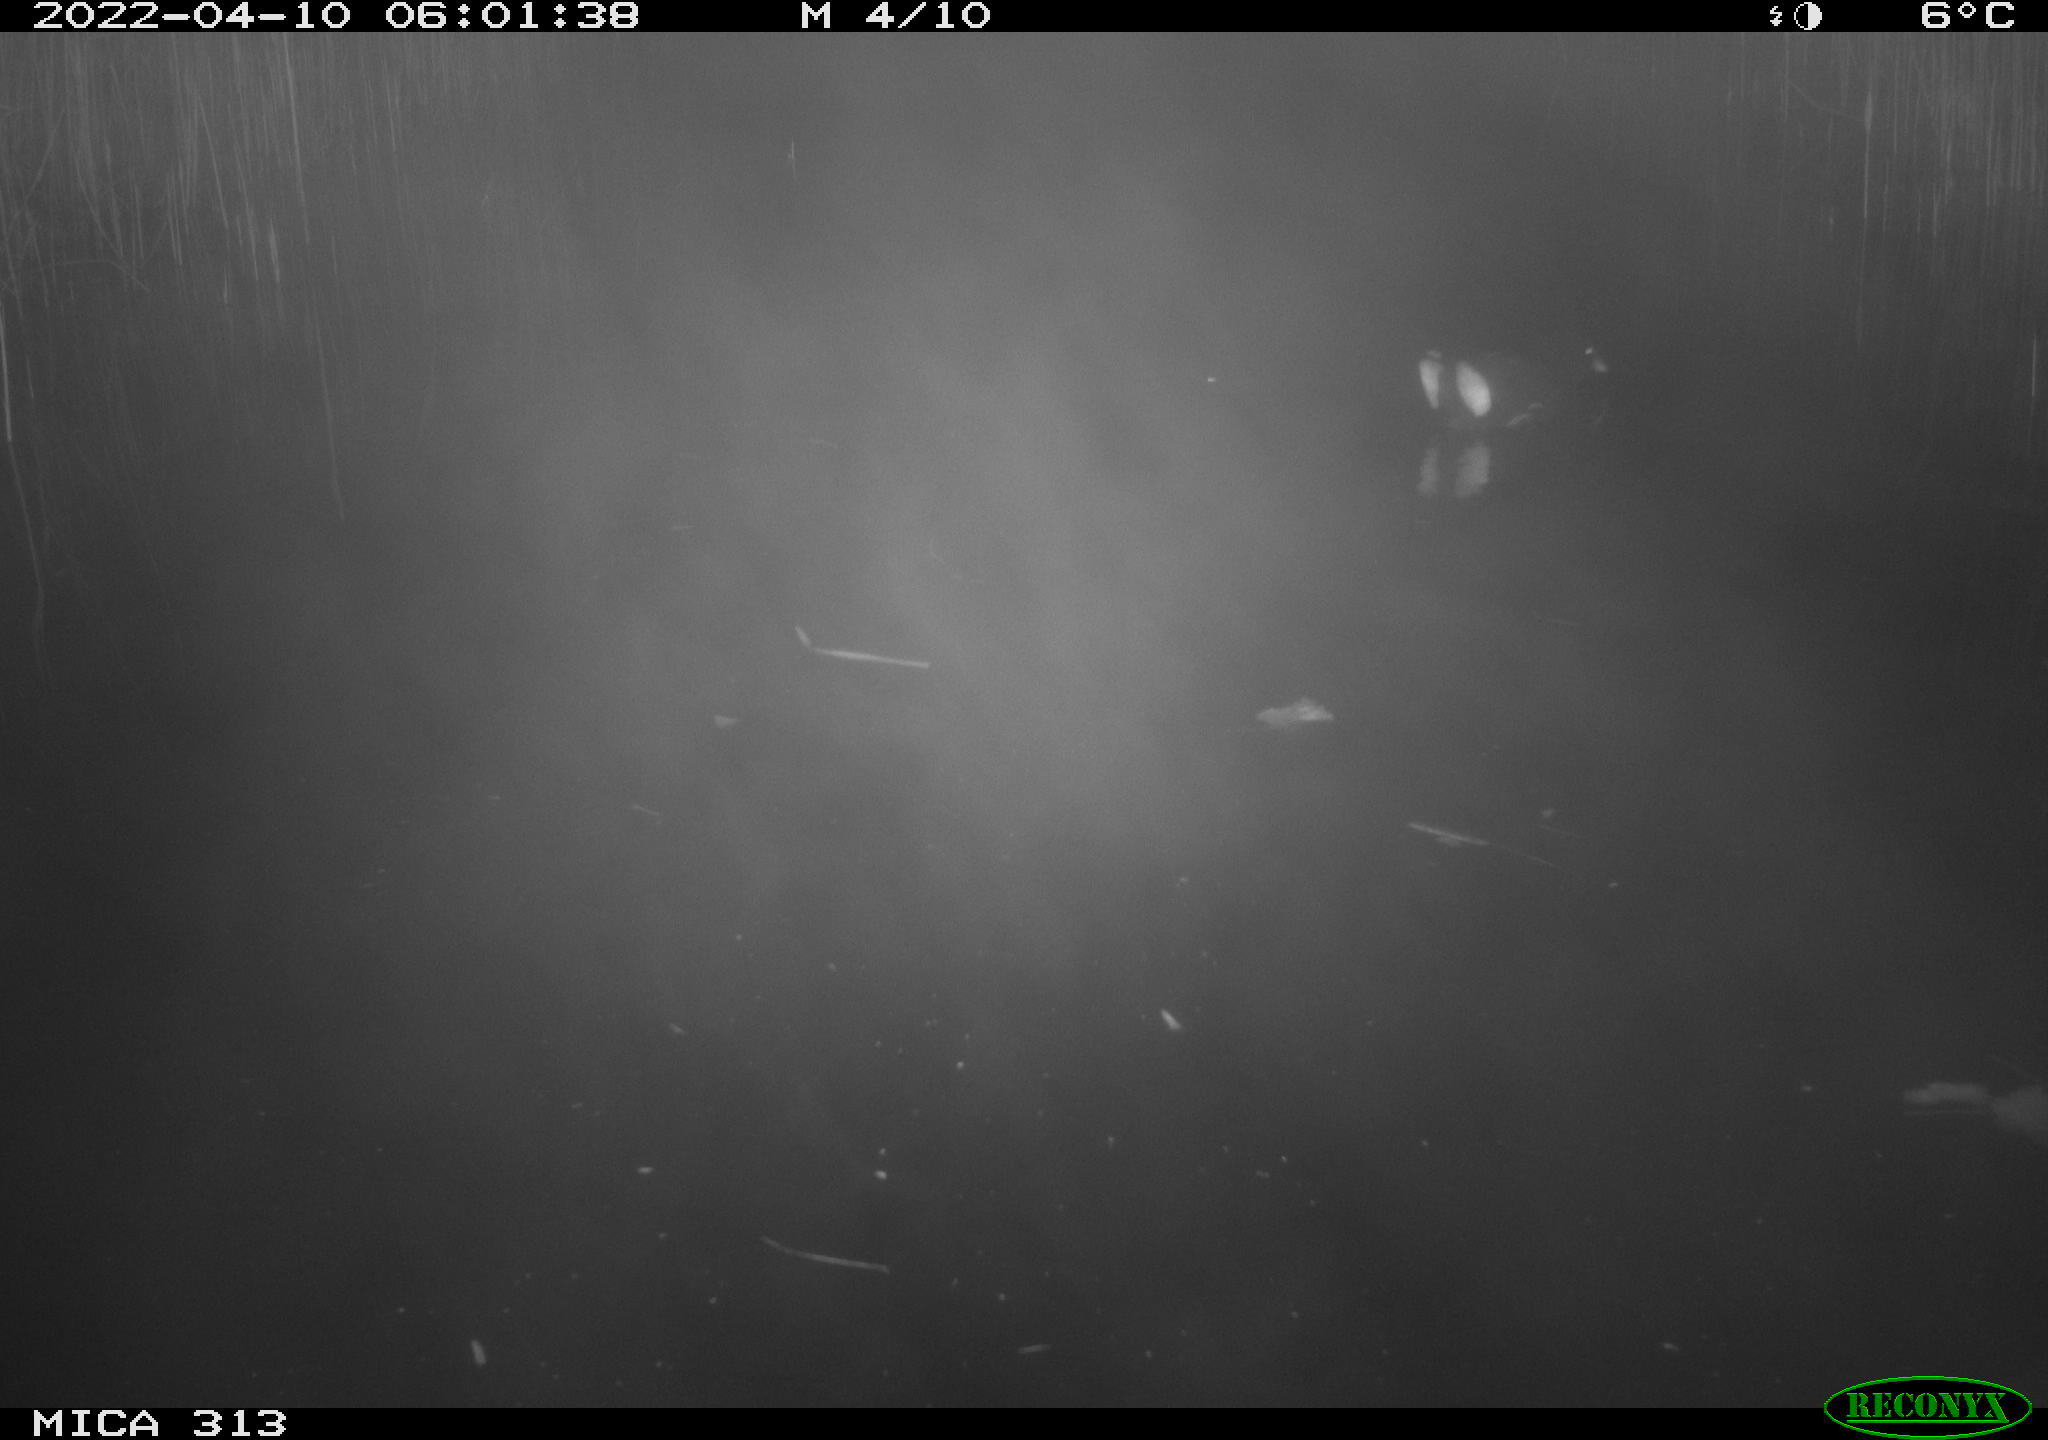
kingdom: Animalia
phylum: Chordata
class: Aves
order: Gruiformes
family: Rallidae
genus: Gallinula
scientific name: Gallinula chloropus
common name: Common moorhen
